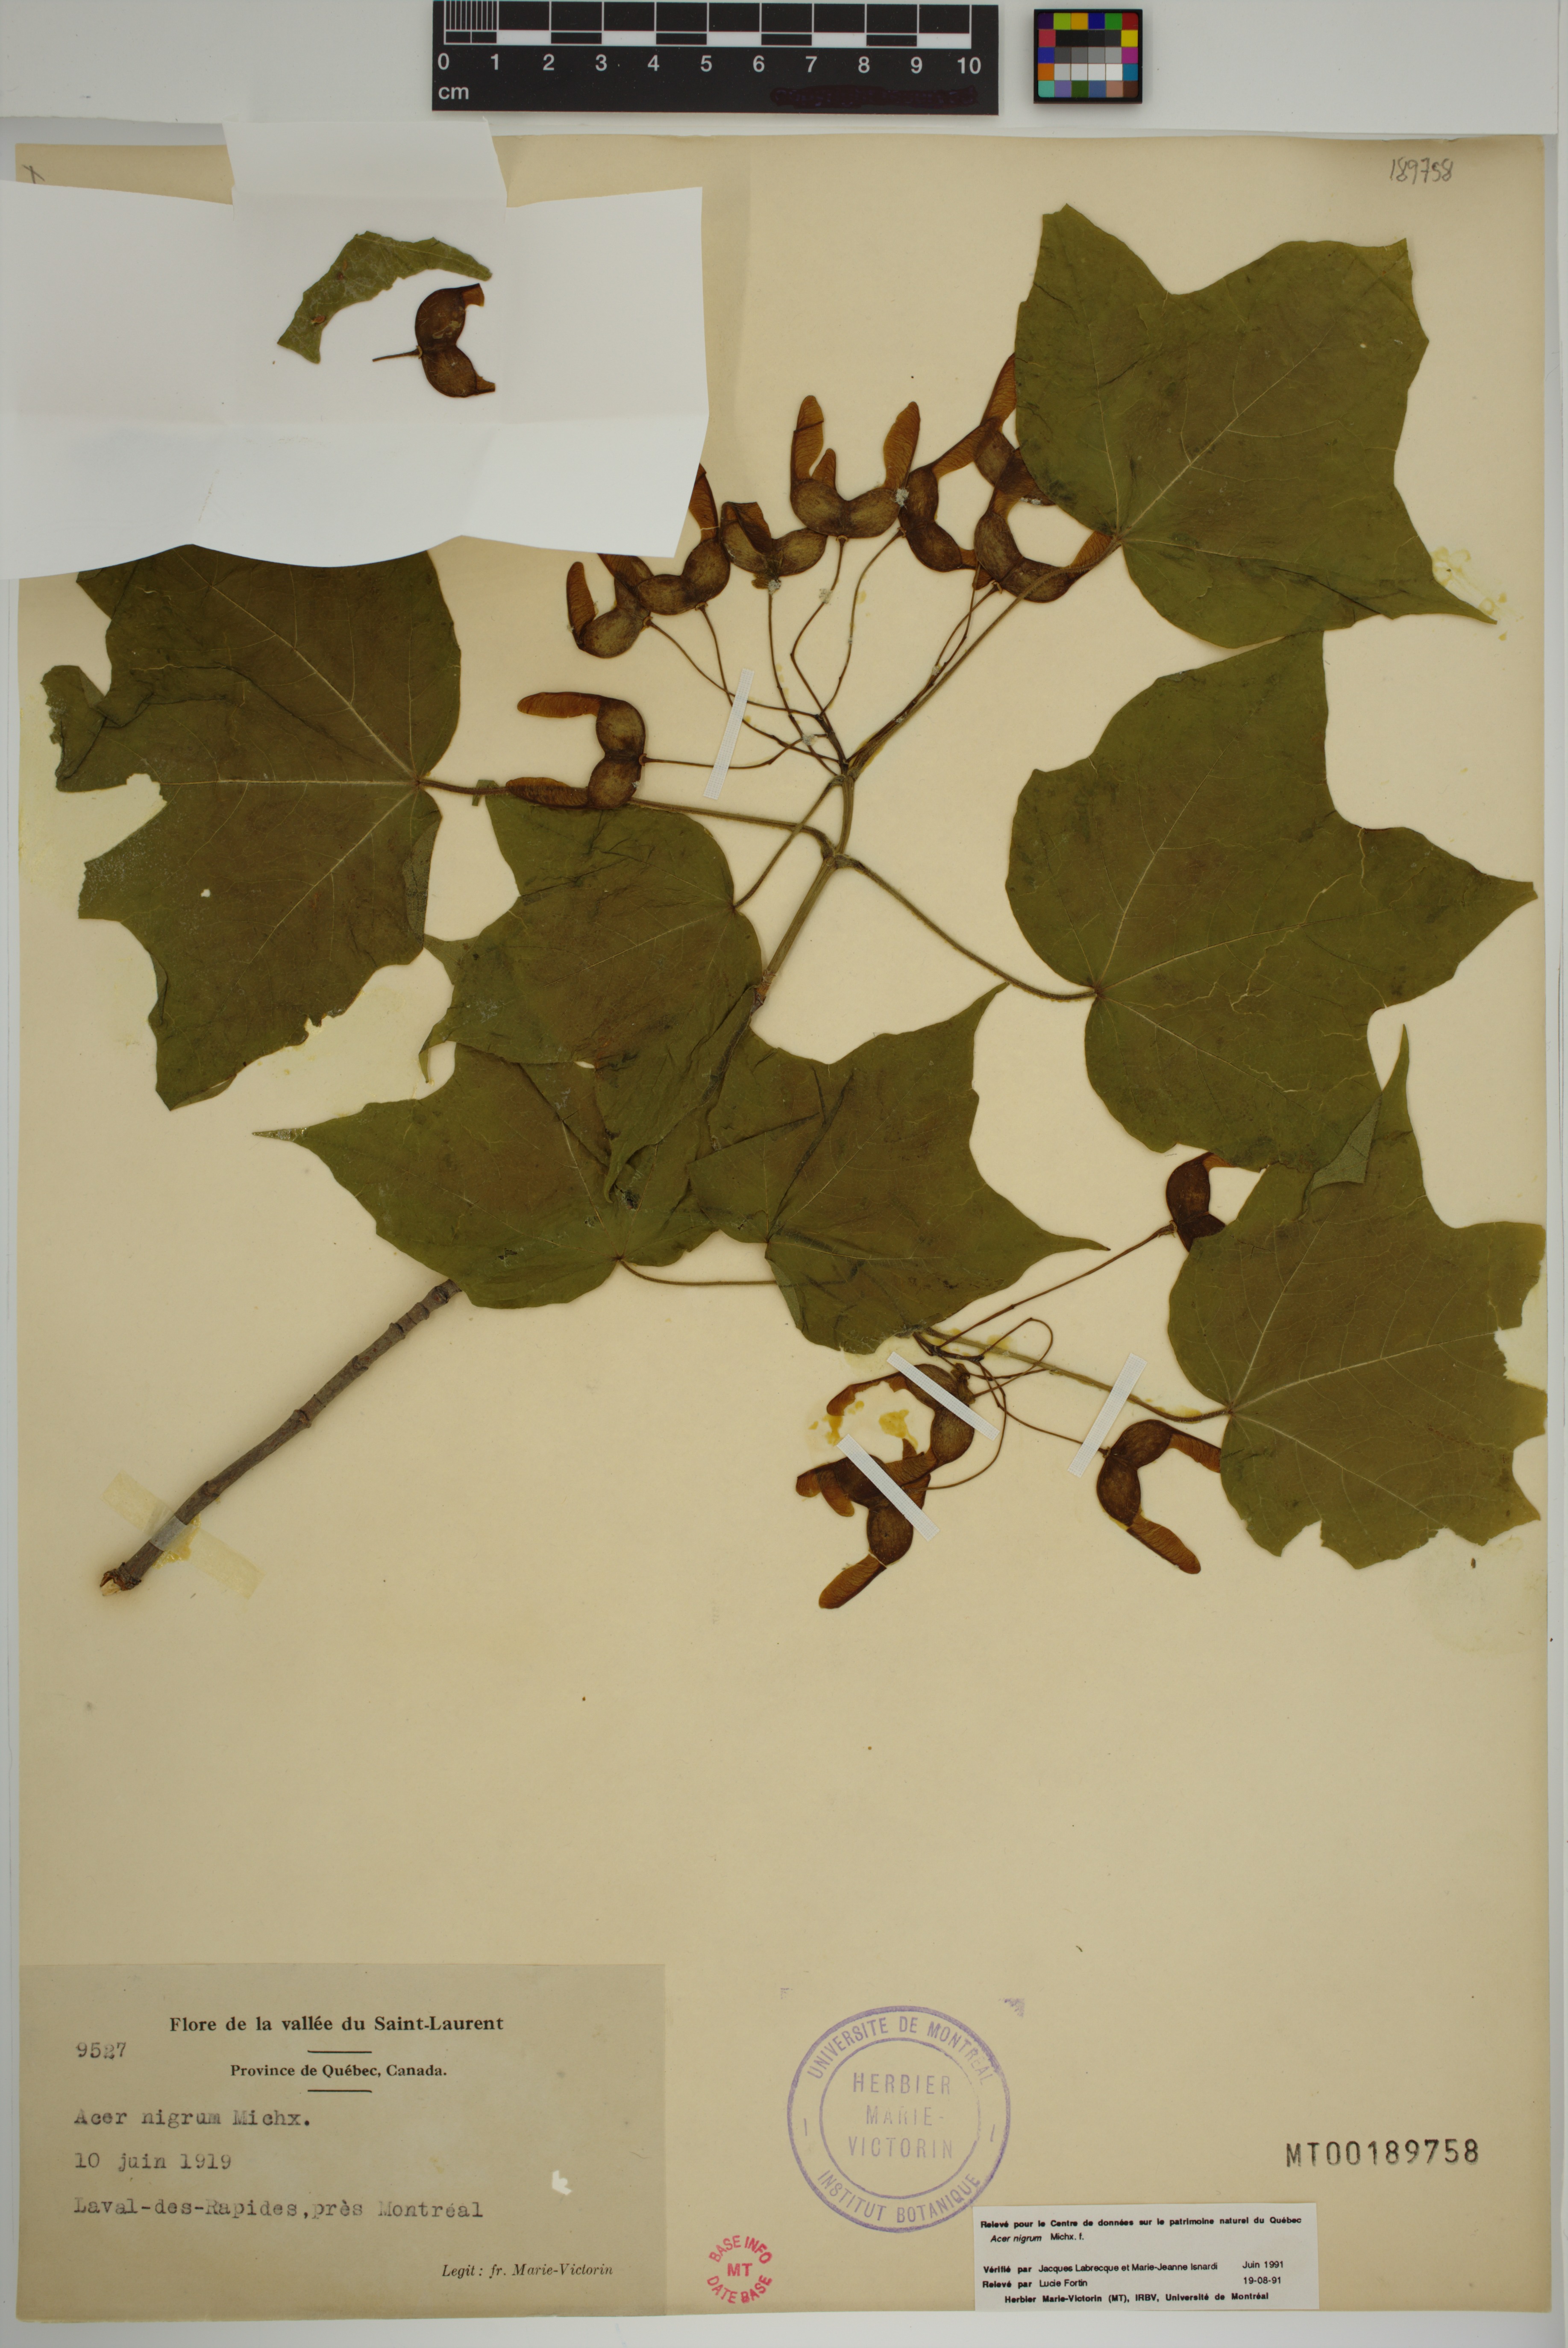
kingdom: Plantae
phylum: Tracheophyta
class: Magnoliopsida
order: Sapindales
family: Sapindaceae
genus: Acer
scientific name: Acer nigrum
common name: Black maple
